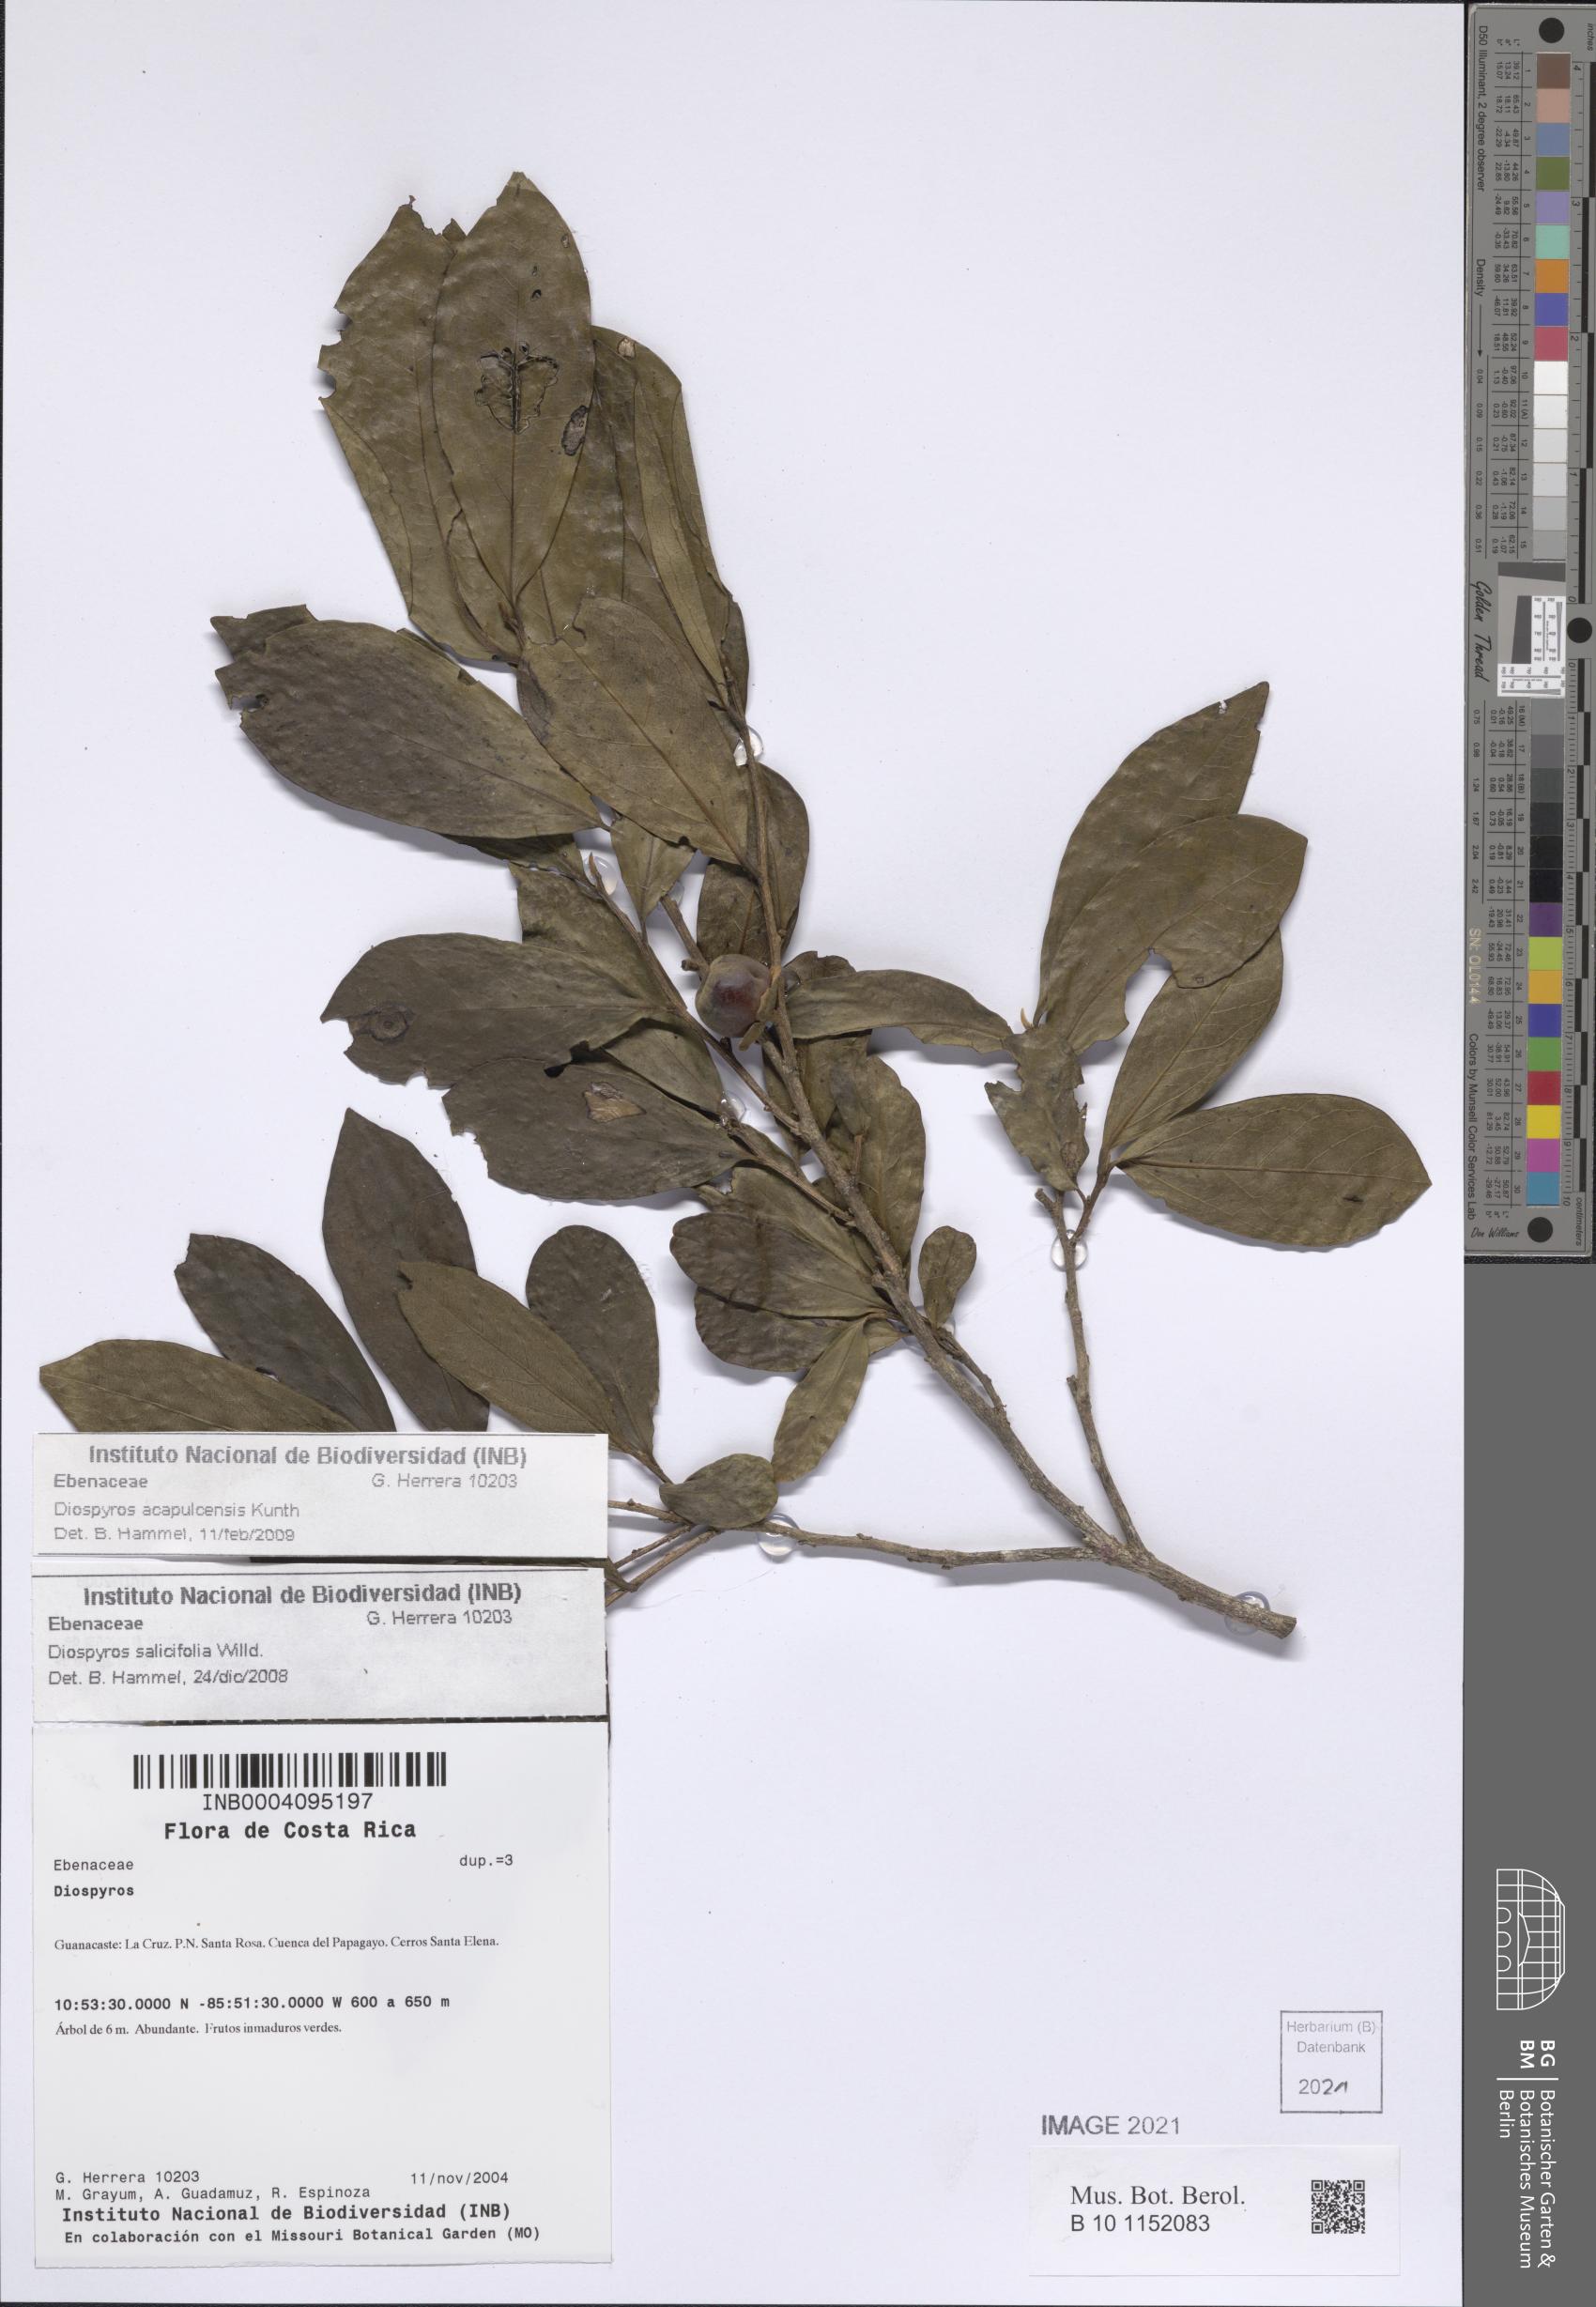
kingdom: Plantae
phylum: Tracheophyta
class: Magnoliopsida
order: Ericales
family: Ebenaceae
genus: Diospyros
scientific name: Diospyros acapulcensis
